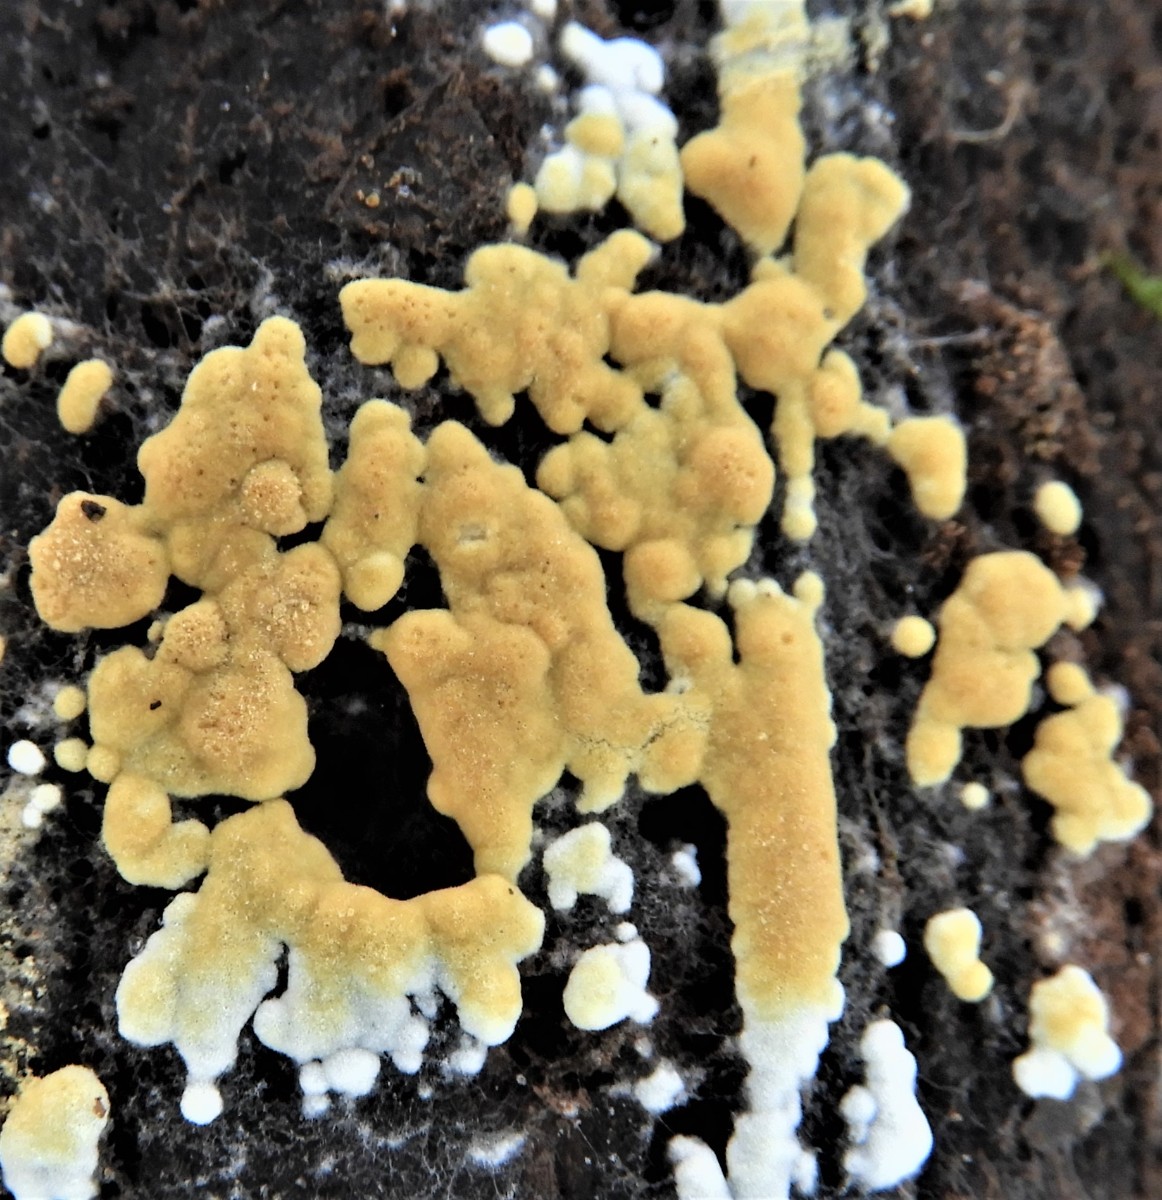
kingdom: Fungi
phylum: Basidiomycota
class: Agaricomycetes
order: Cantharellales
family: Botryobasidiaceae
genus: Botryobasidium
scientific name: Botryobasidium aureum
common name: gylden spindhinde
